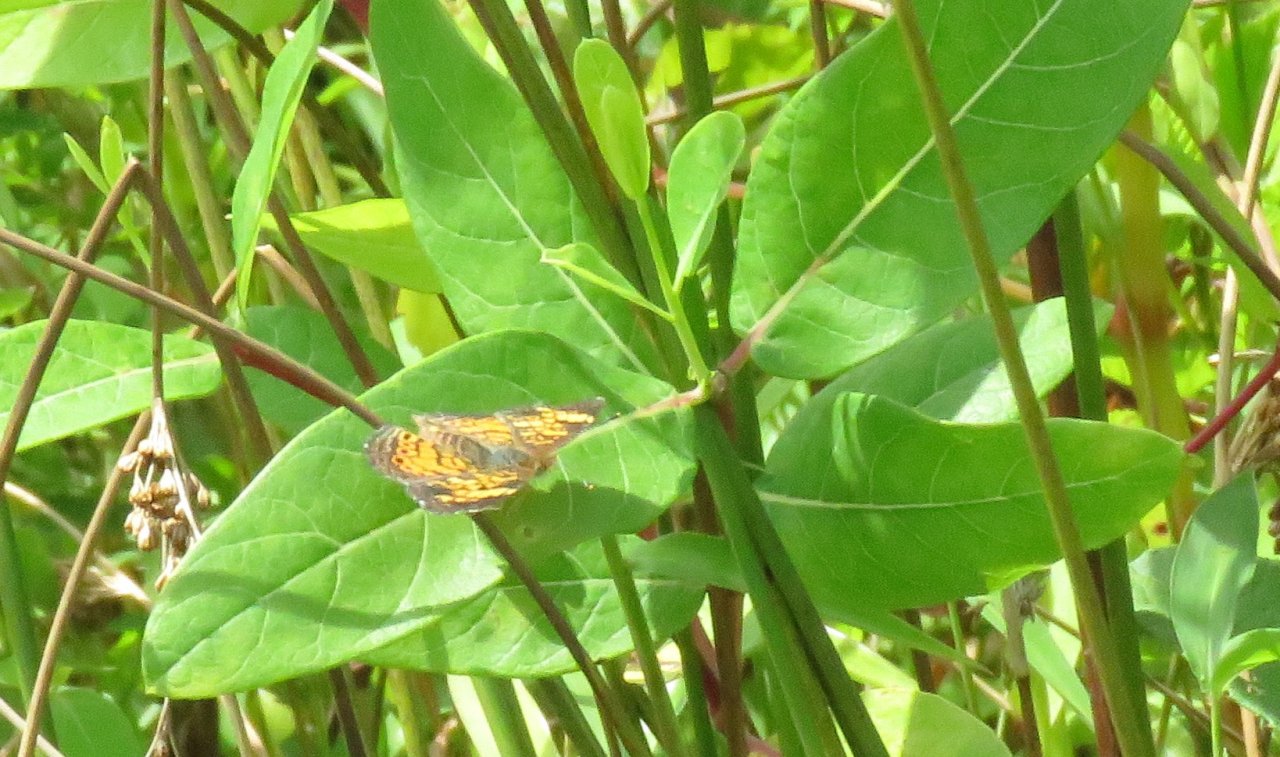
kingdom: Animalia
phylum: Arthropoda
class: Insecta
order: Lepidoptera
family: Nymphalidae
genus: Phyciodes
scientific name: Phyciodes tharos
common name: Pearl Crescent
